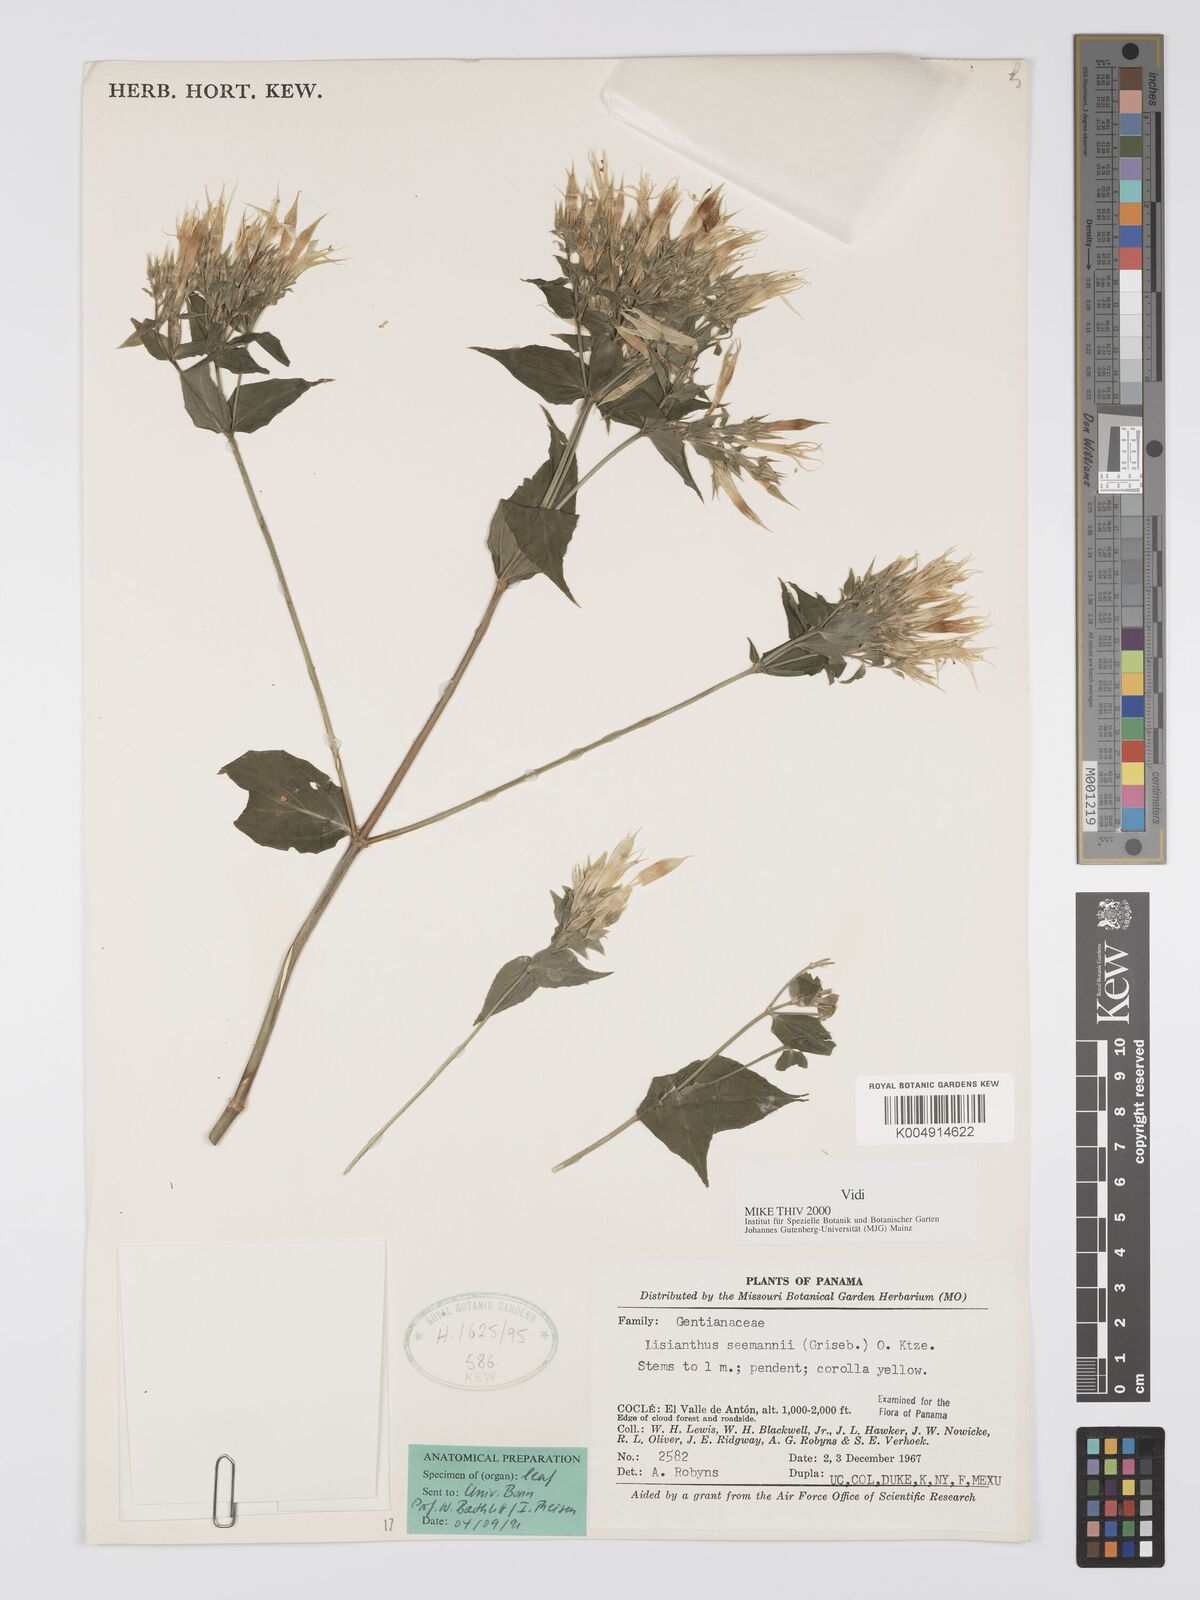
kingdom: Plantae
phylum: Tracheophyta
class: Magnoliopsida
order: Gentianales
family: Gentianaceae
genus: Lisianthus
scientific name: Lisianthus seemannii
